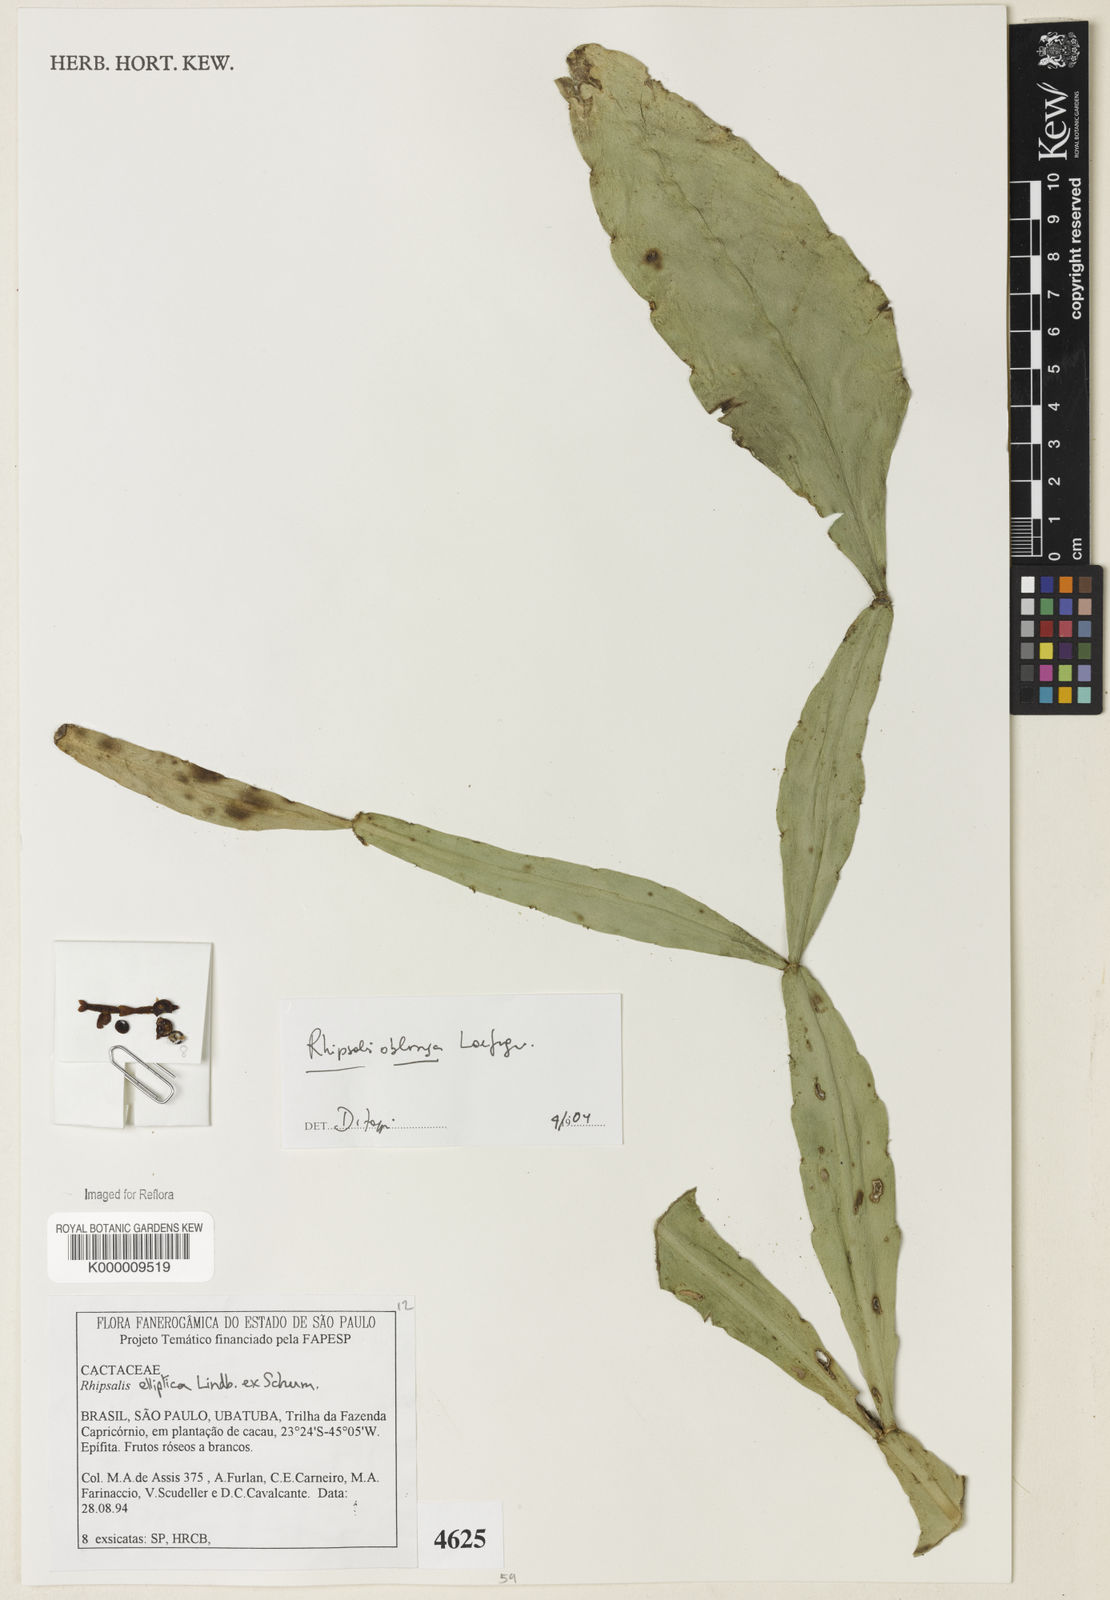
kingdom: Plantae
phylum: Tracheophyta
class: Magnoliopsida
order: Caryophyllales
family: Cactaceae
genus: Rhipsalis
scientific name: Rhipsalis
